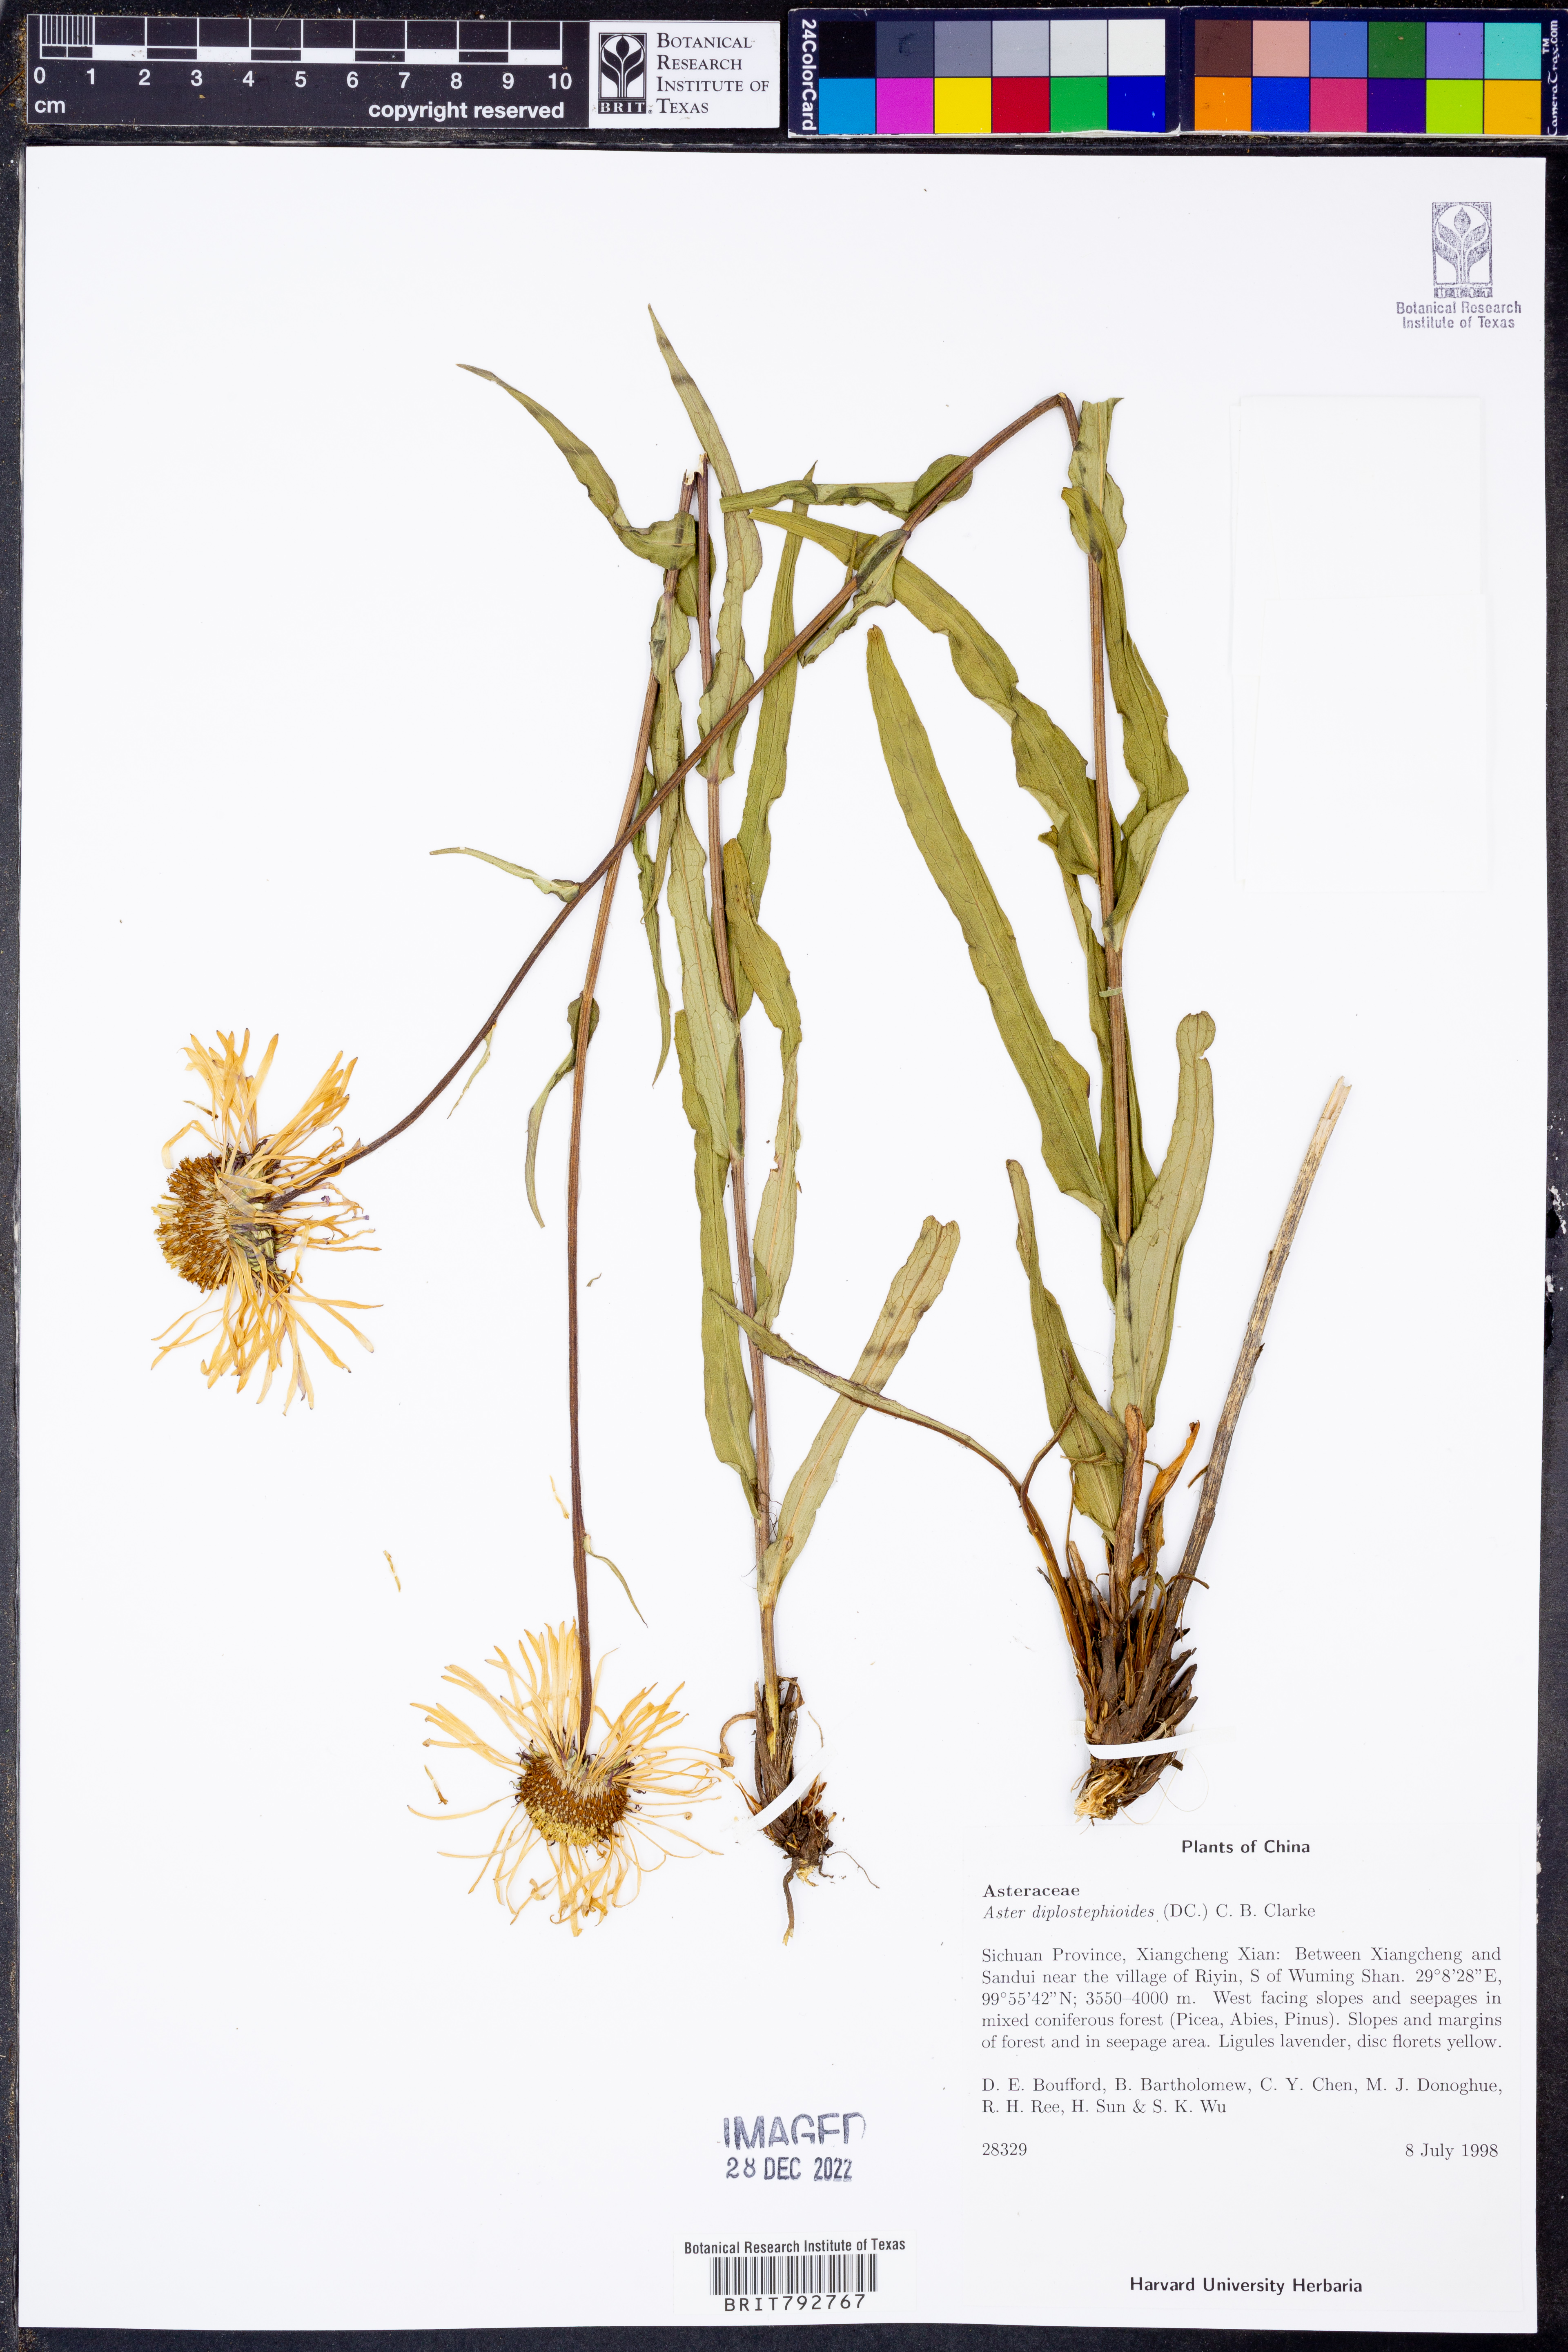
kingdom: Plantae
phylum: Tracheophyta
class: Magnoliopsida
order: Asterales
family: Asteraceae
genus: Aster
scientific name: Aster diplostephioides
